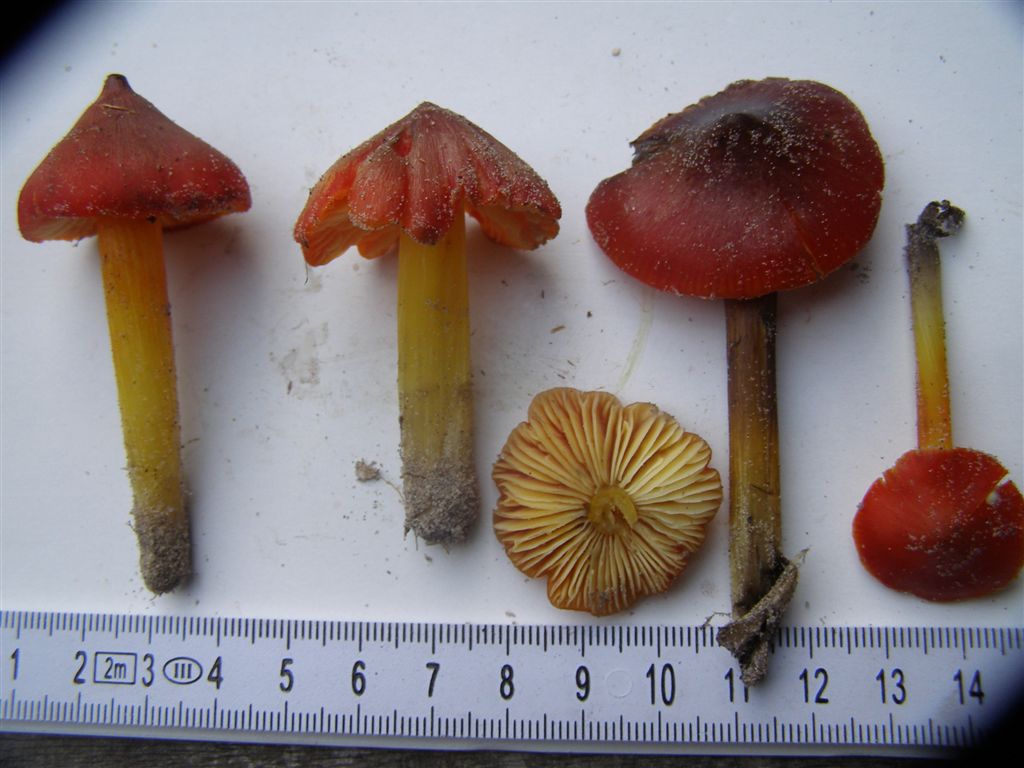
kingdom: Fungi
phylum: Basidiomycota
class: Agaricomycetes
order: Agaricales
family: Hygrophoraceae
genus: Hygrocybe
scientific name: Hygrocybe conicoides
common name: klit-vokshat
